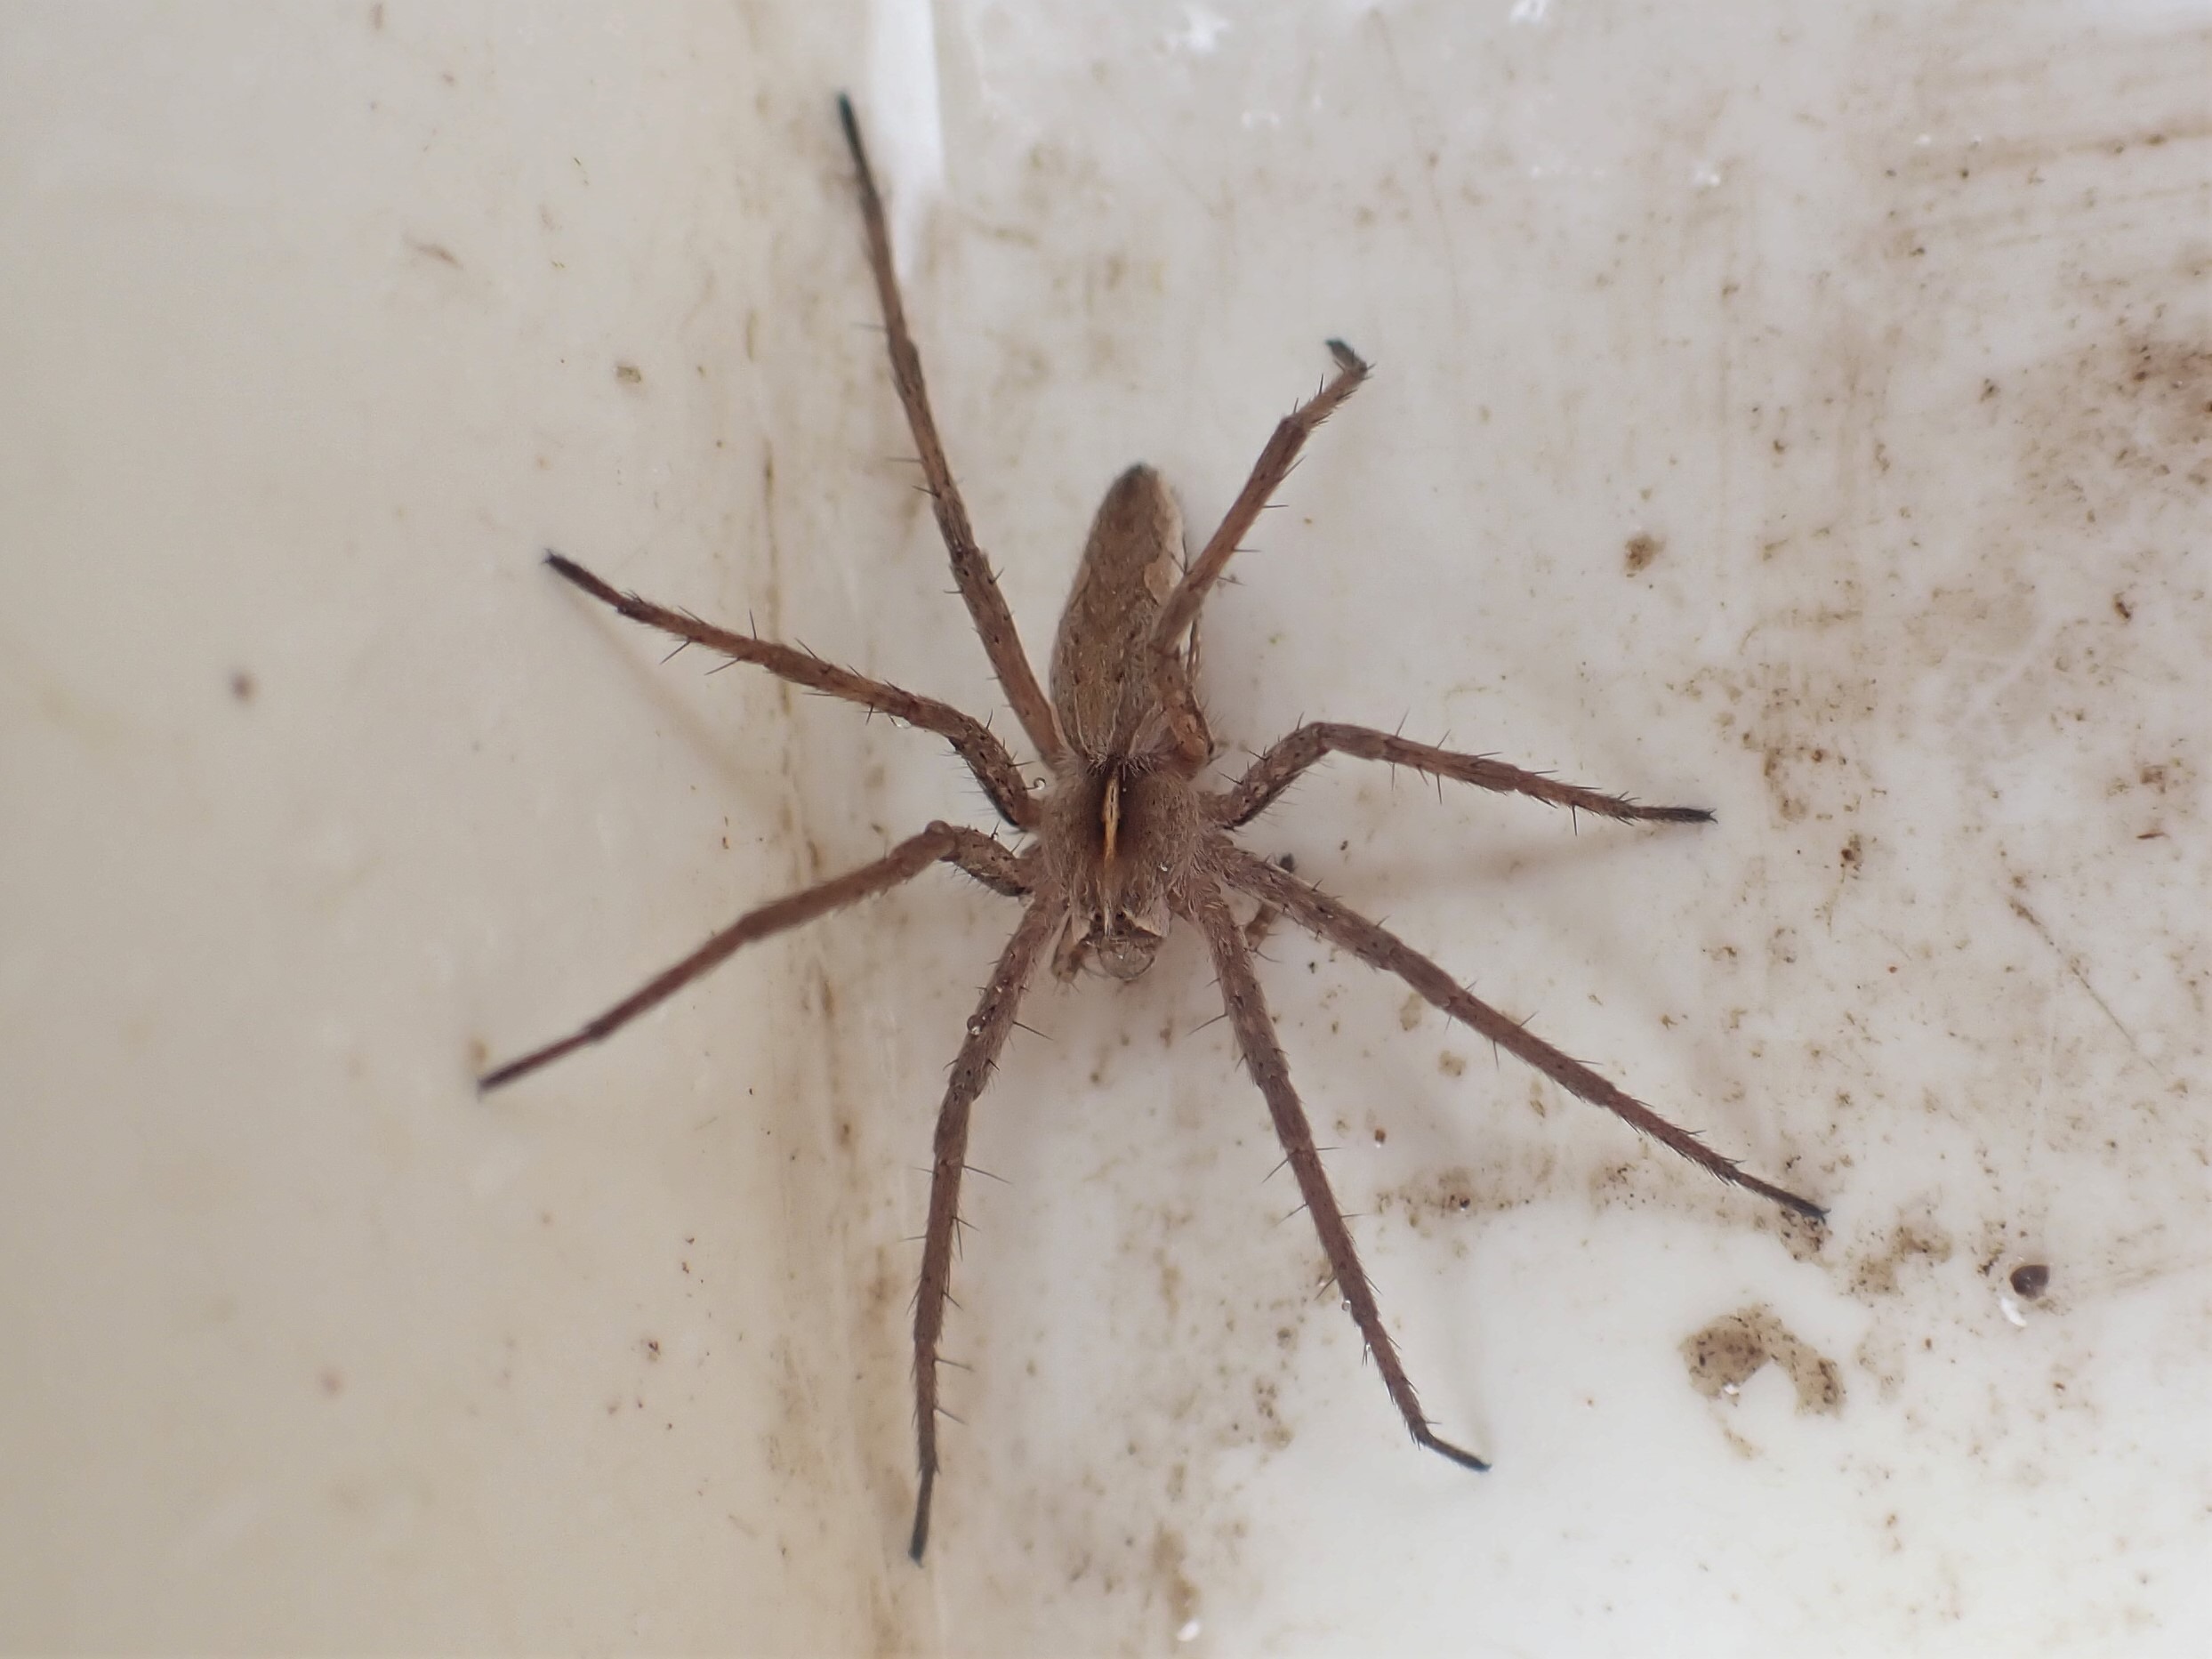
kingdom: Animalia
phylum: Arthropoda
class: Arachnida
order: Araneae
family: Pisauridae
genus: Pisaura
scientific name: Pisaura mirabilis
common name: Almindelig rovedderkop
